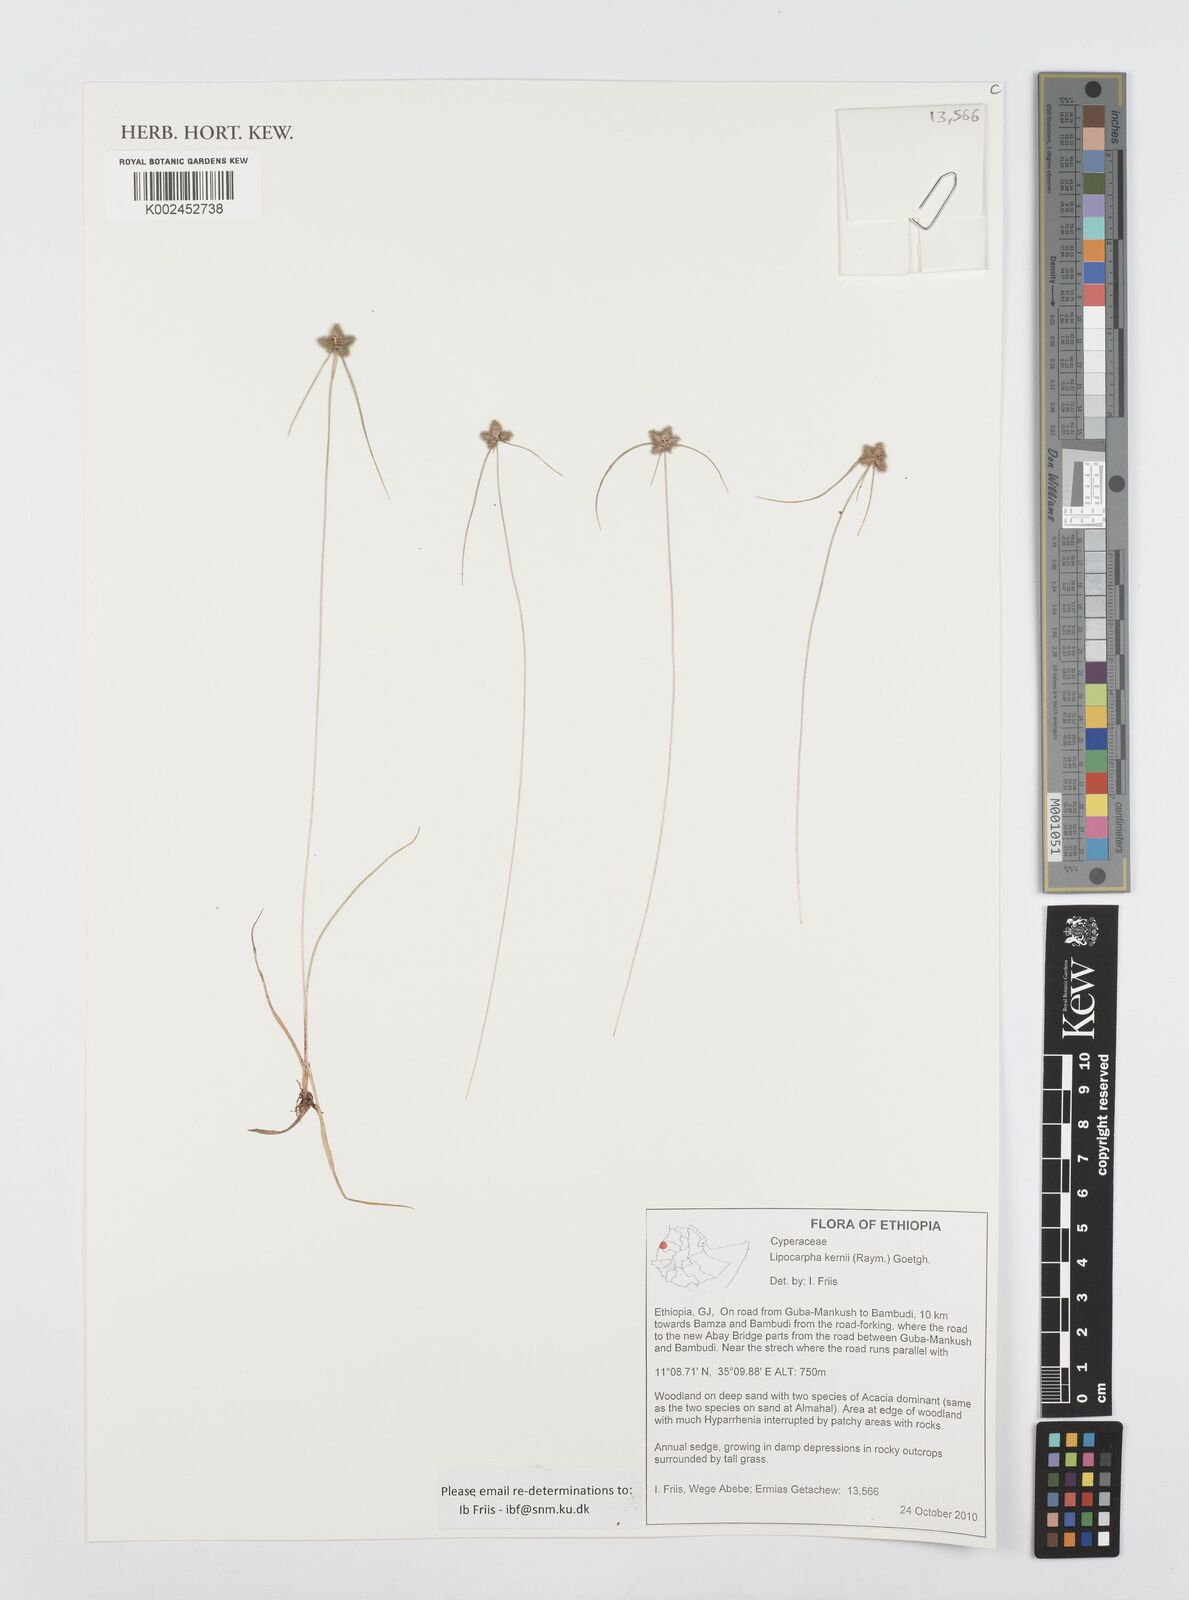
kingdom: Plantae
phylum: Tracheophyta
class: Liliopsida
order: Poales
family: Cyperaceae
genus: Cyperus
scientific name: Cyperus kernii
